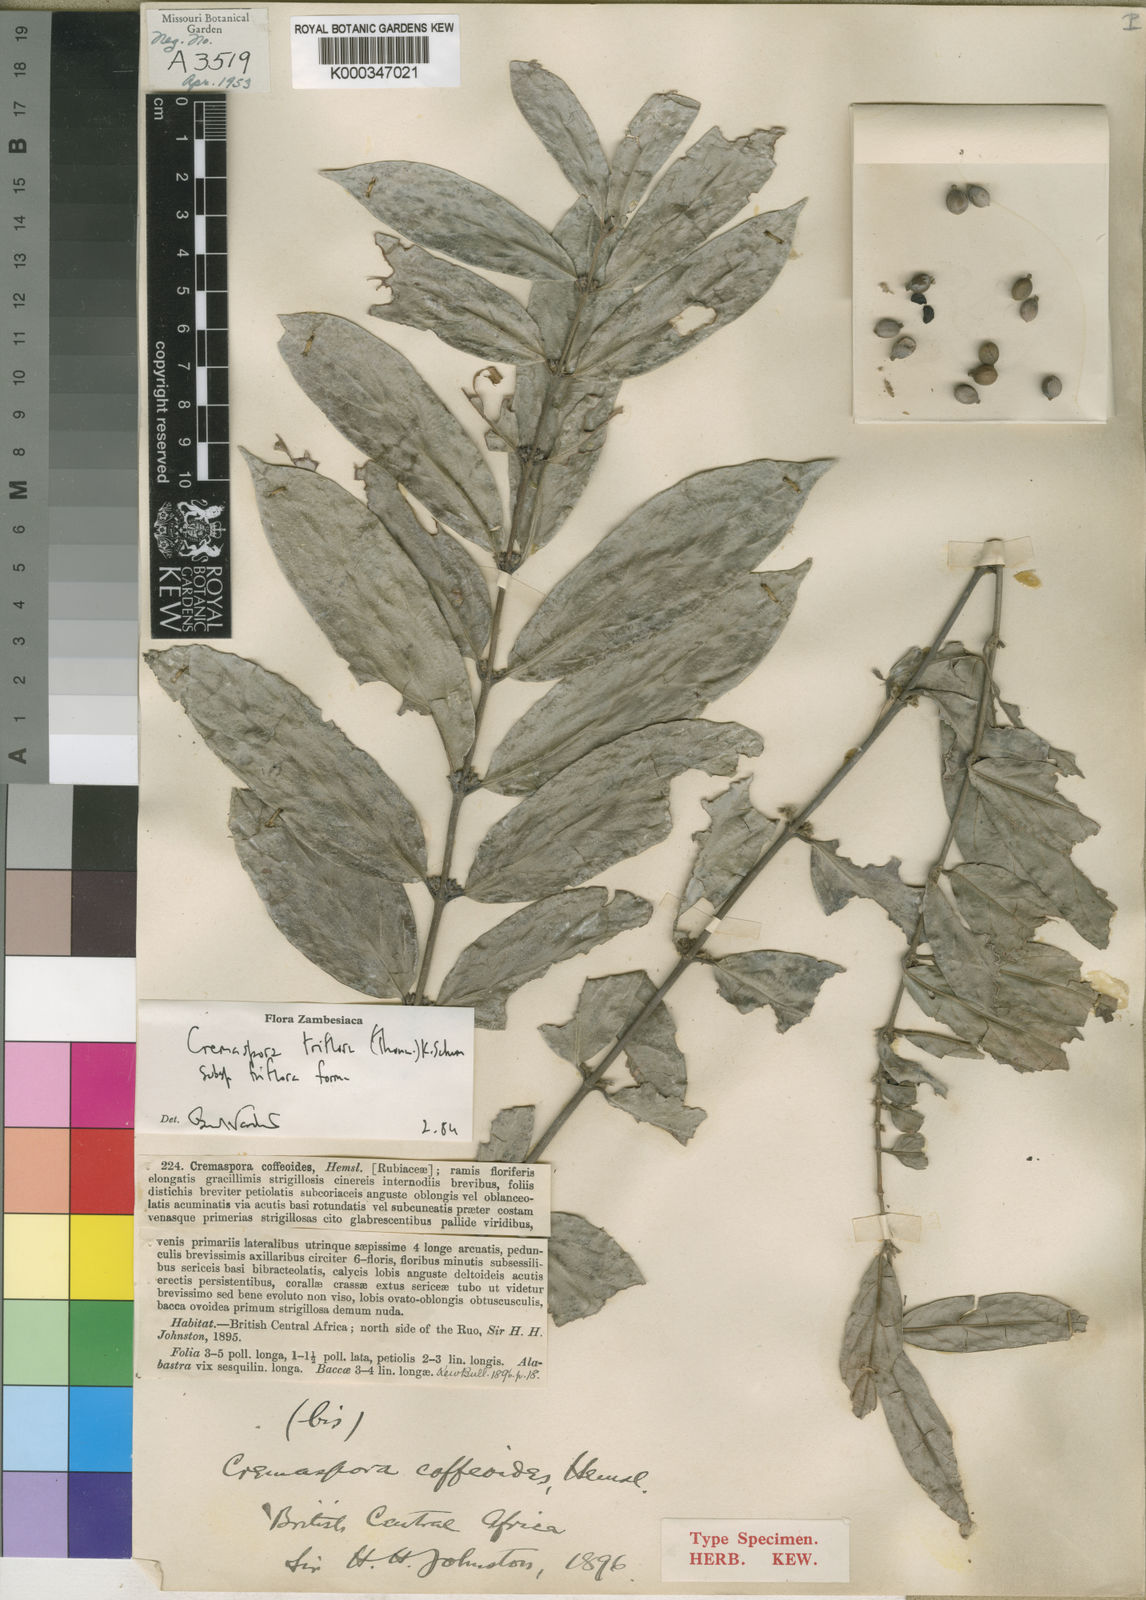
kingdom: Plantae
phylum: Tracheophyta
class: Magnoliopsida
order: Gentianales
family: Rubiaceae
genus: Cremaspora
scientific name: Cremaspora triflora
